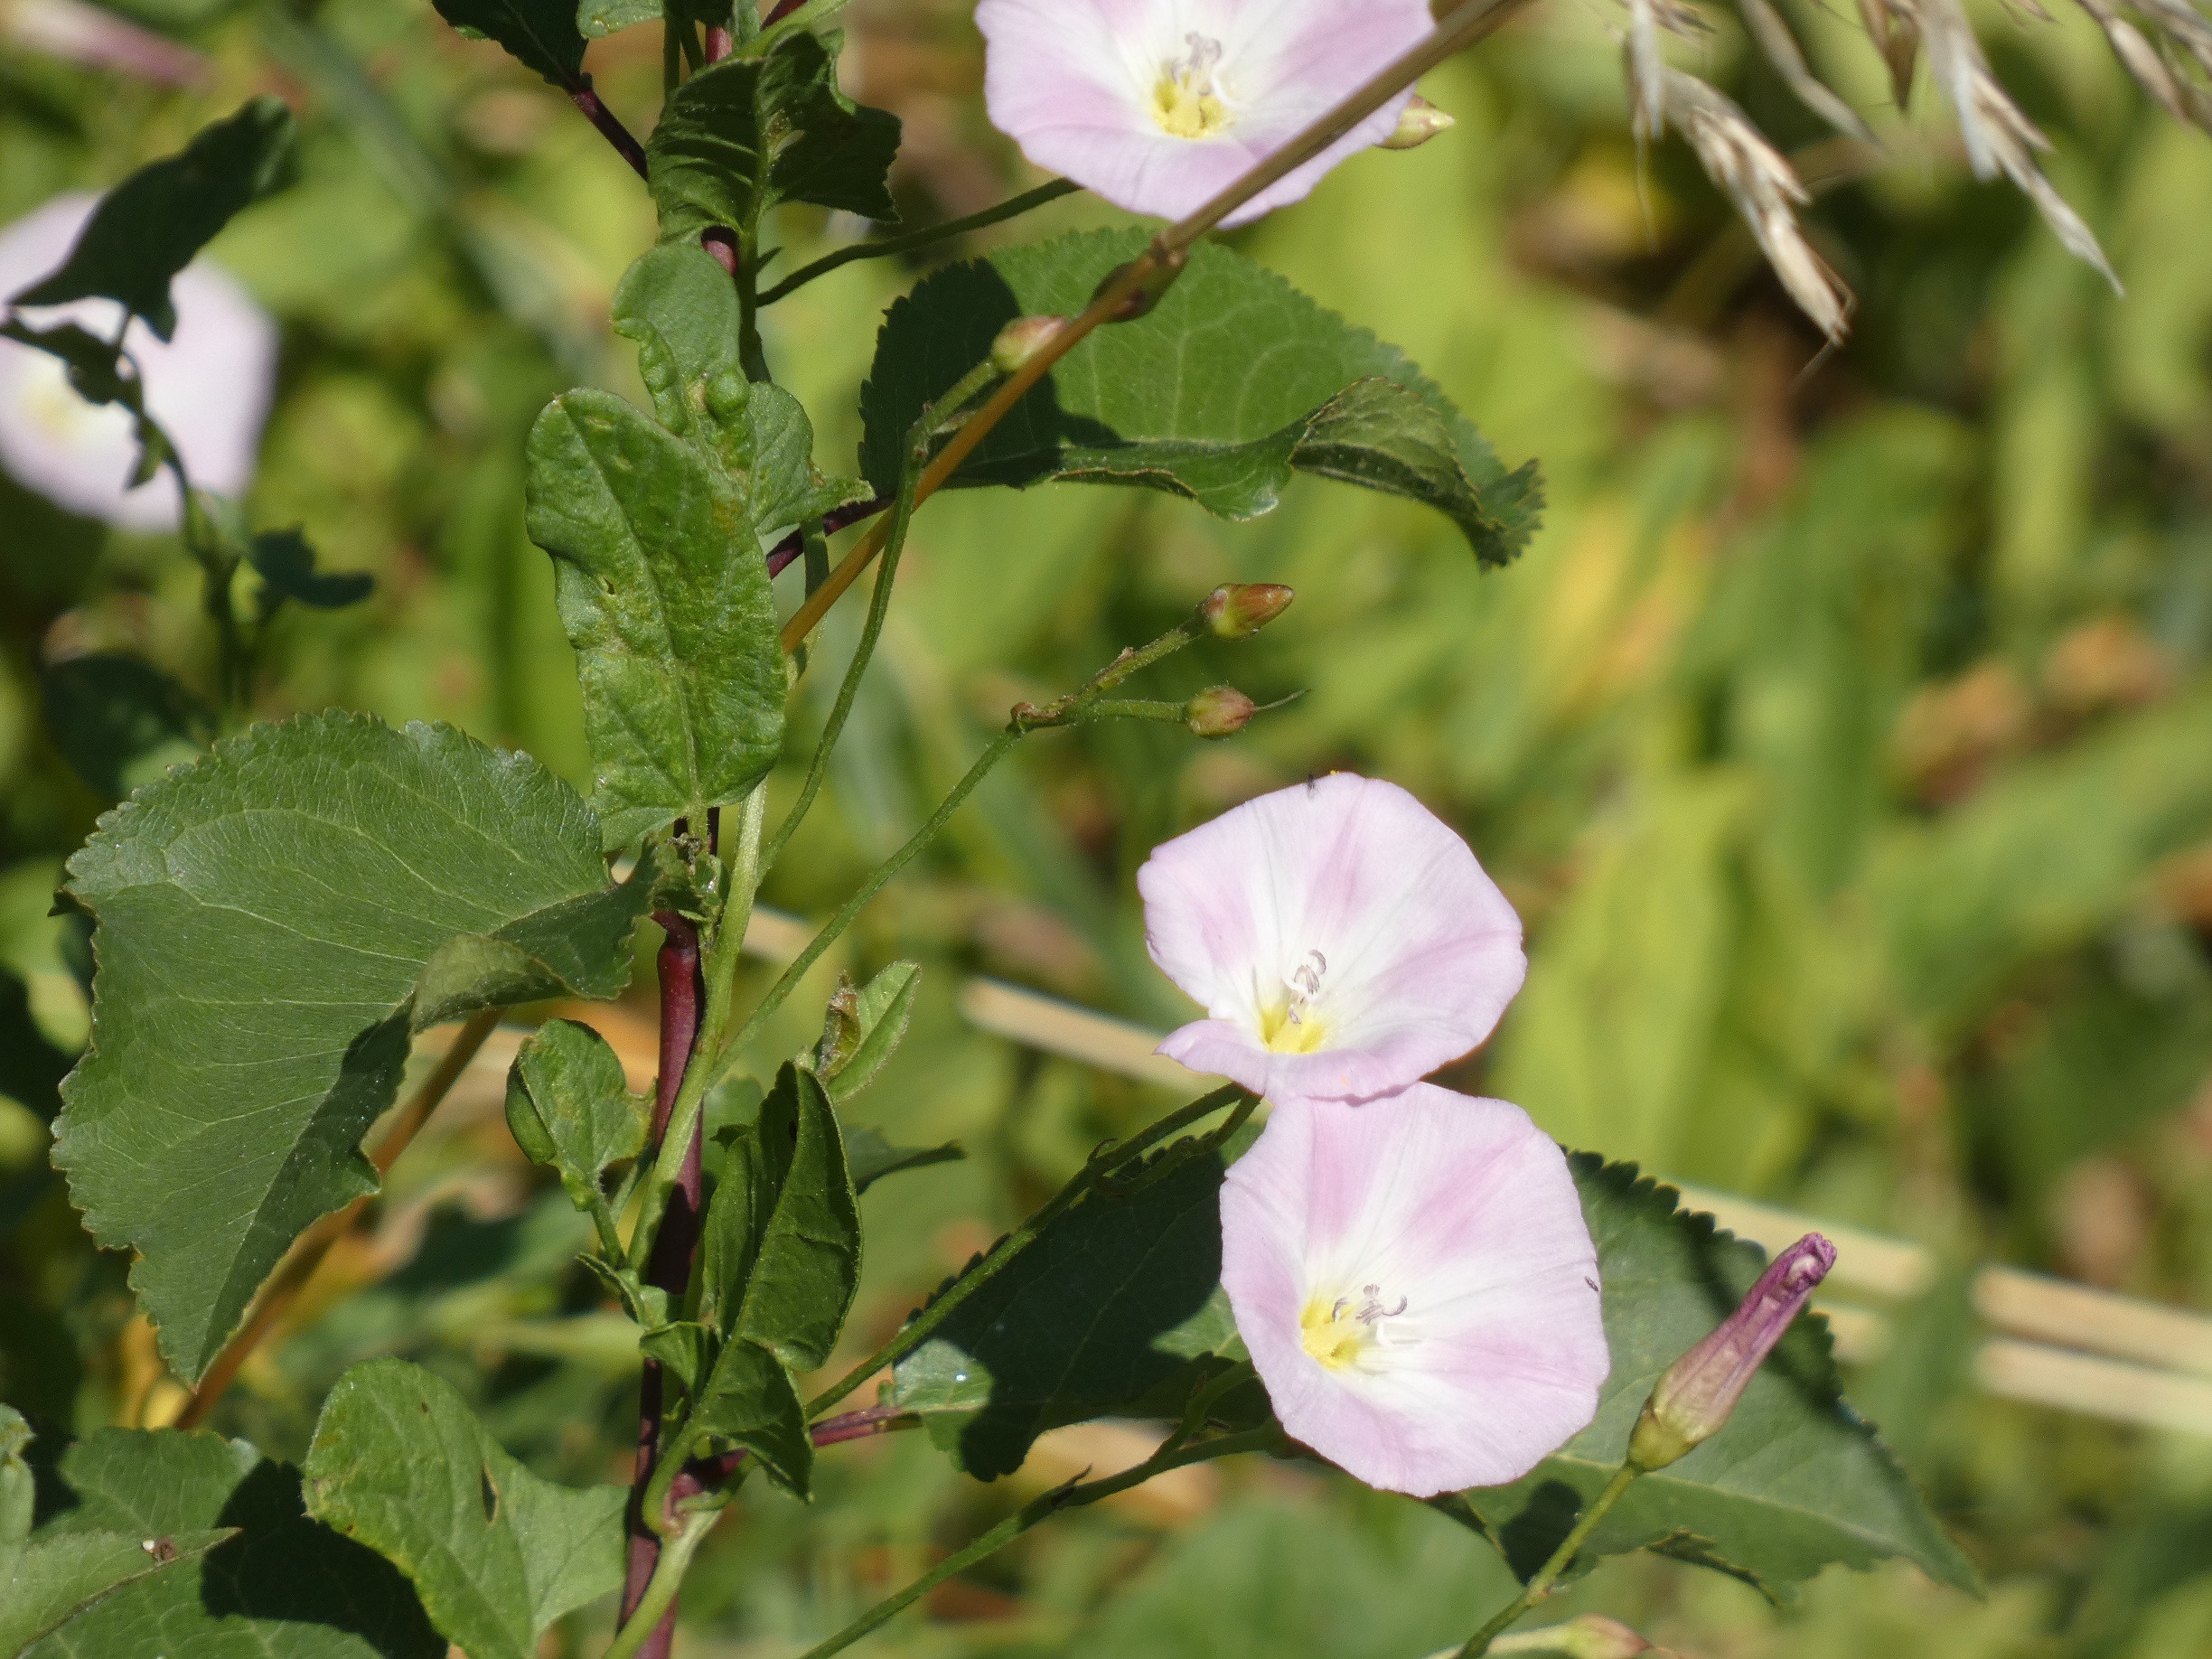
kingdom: Plantae
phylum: Tracheophyta
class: Magnoliopsida
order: Solanales
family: Convolvulaceae
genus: Convolvulus
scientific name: Convolvulus arvensis
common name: Ager-snerle
